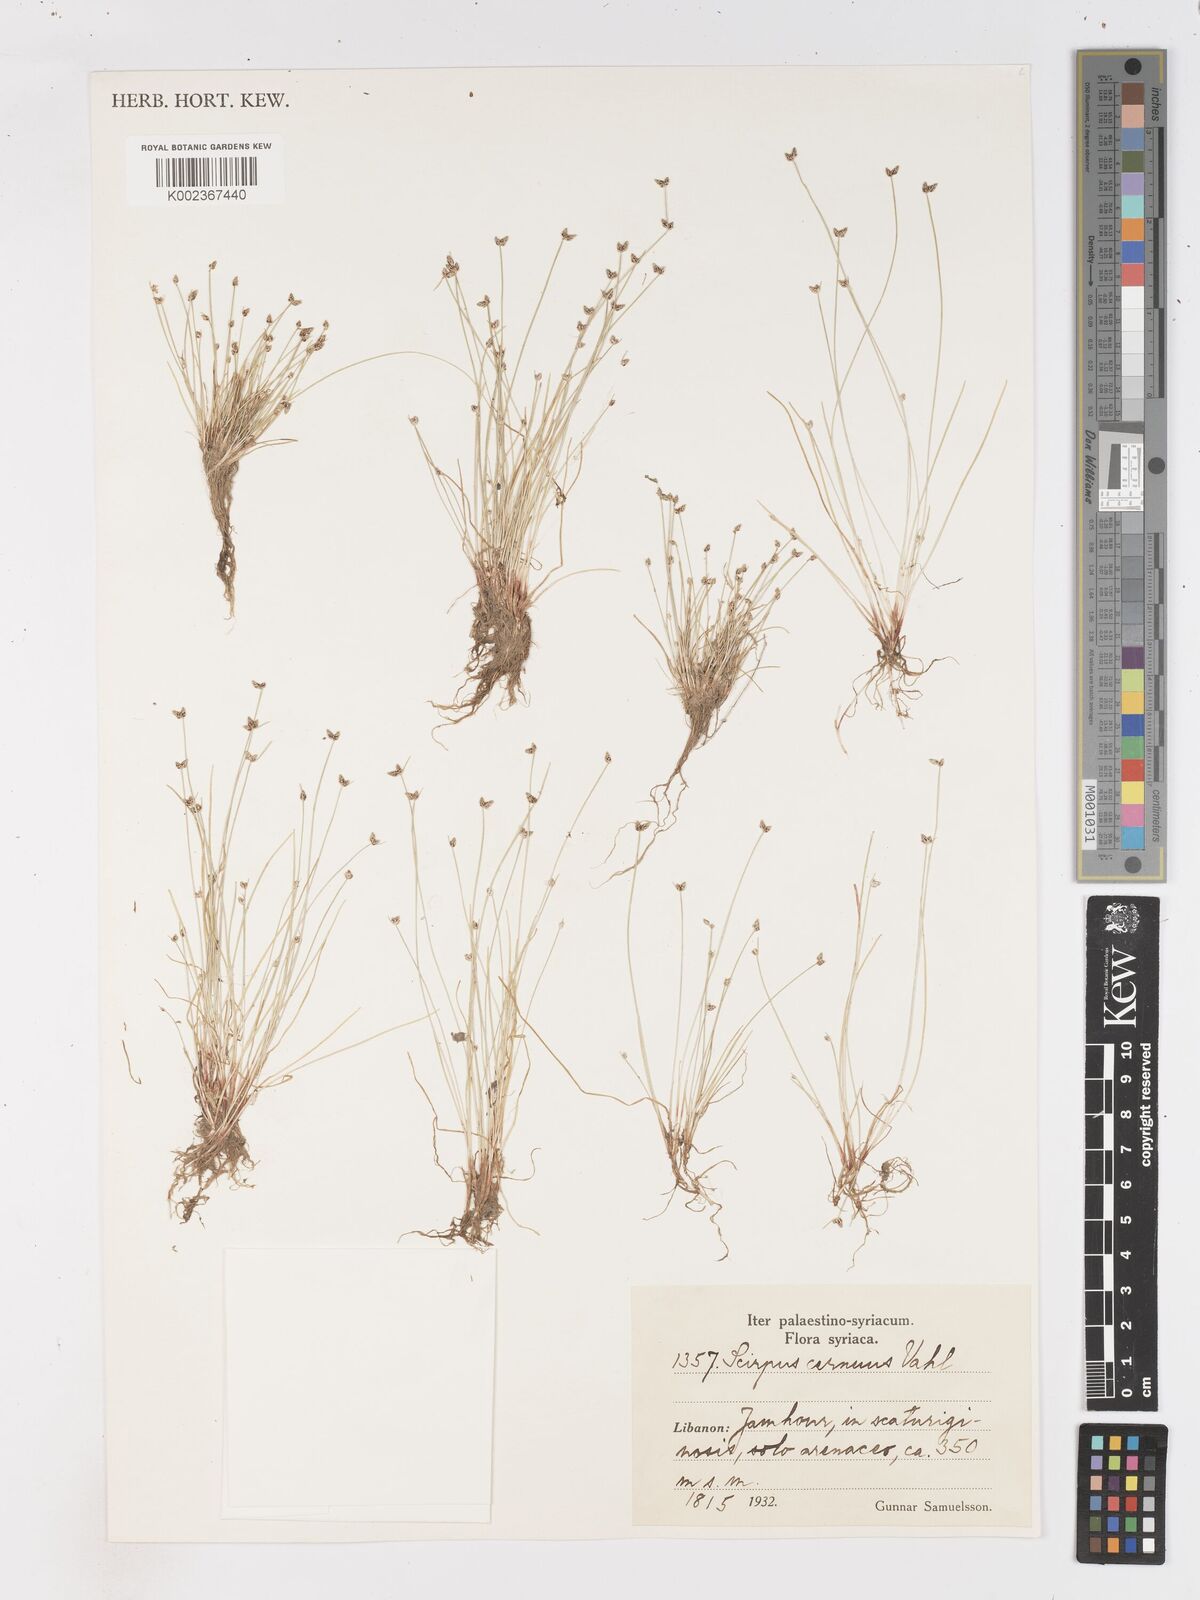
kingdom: Plantae
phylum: Tracheophyta
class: Liliopsida
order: Poales
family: Cyperaceae
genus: Isolepis
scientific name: Isolepis cernua
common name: Slender club-rush
